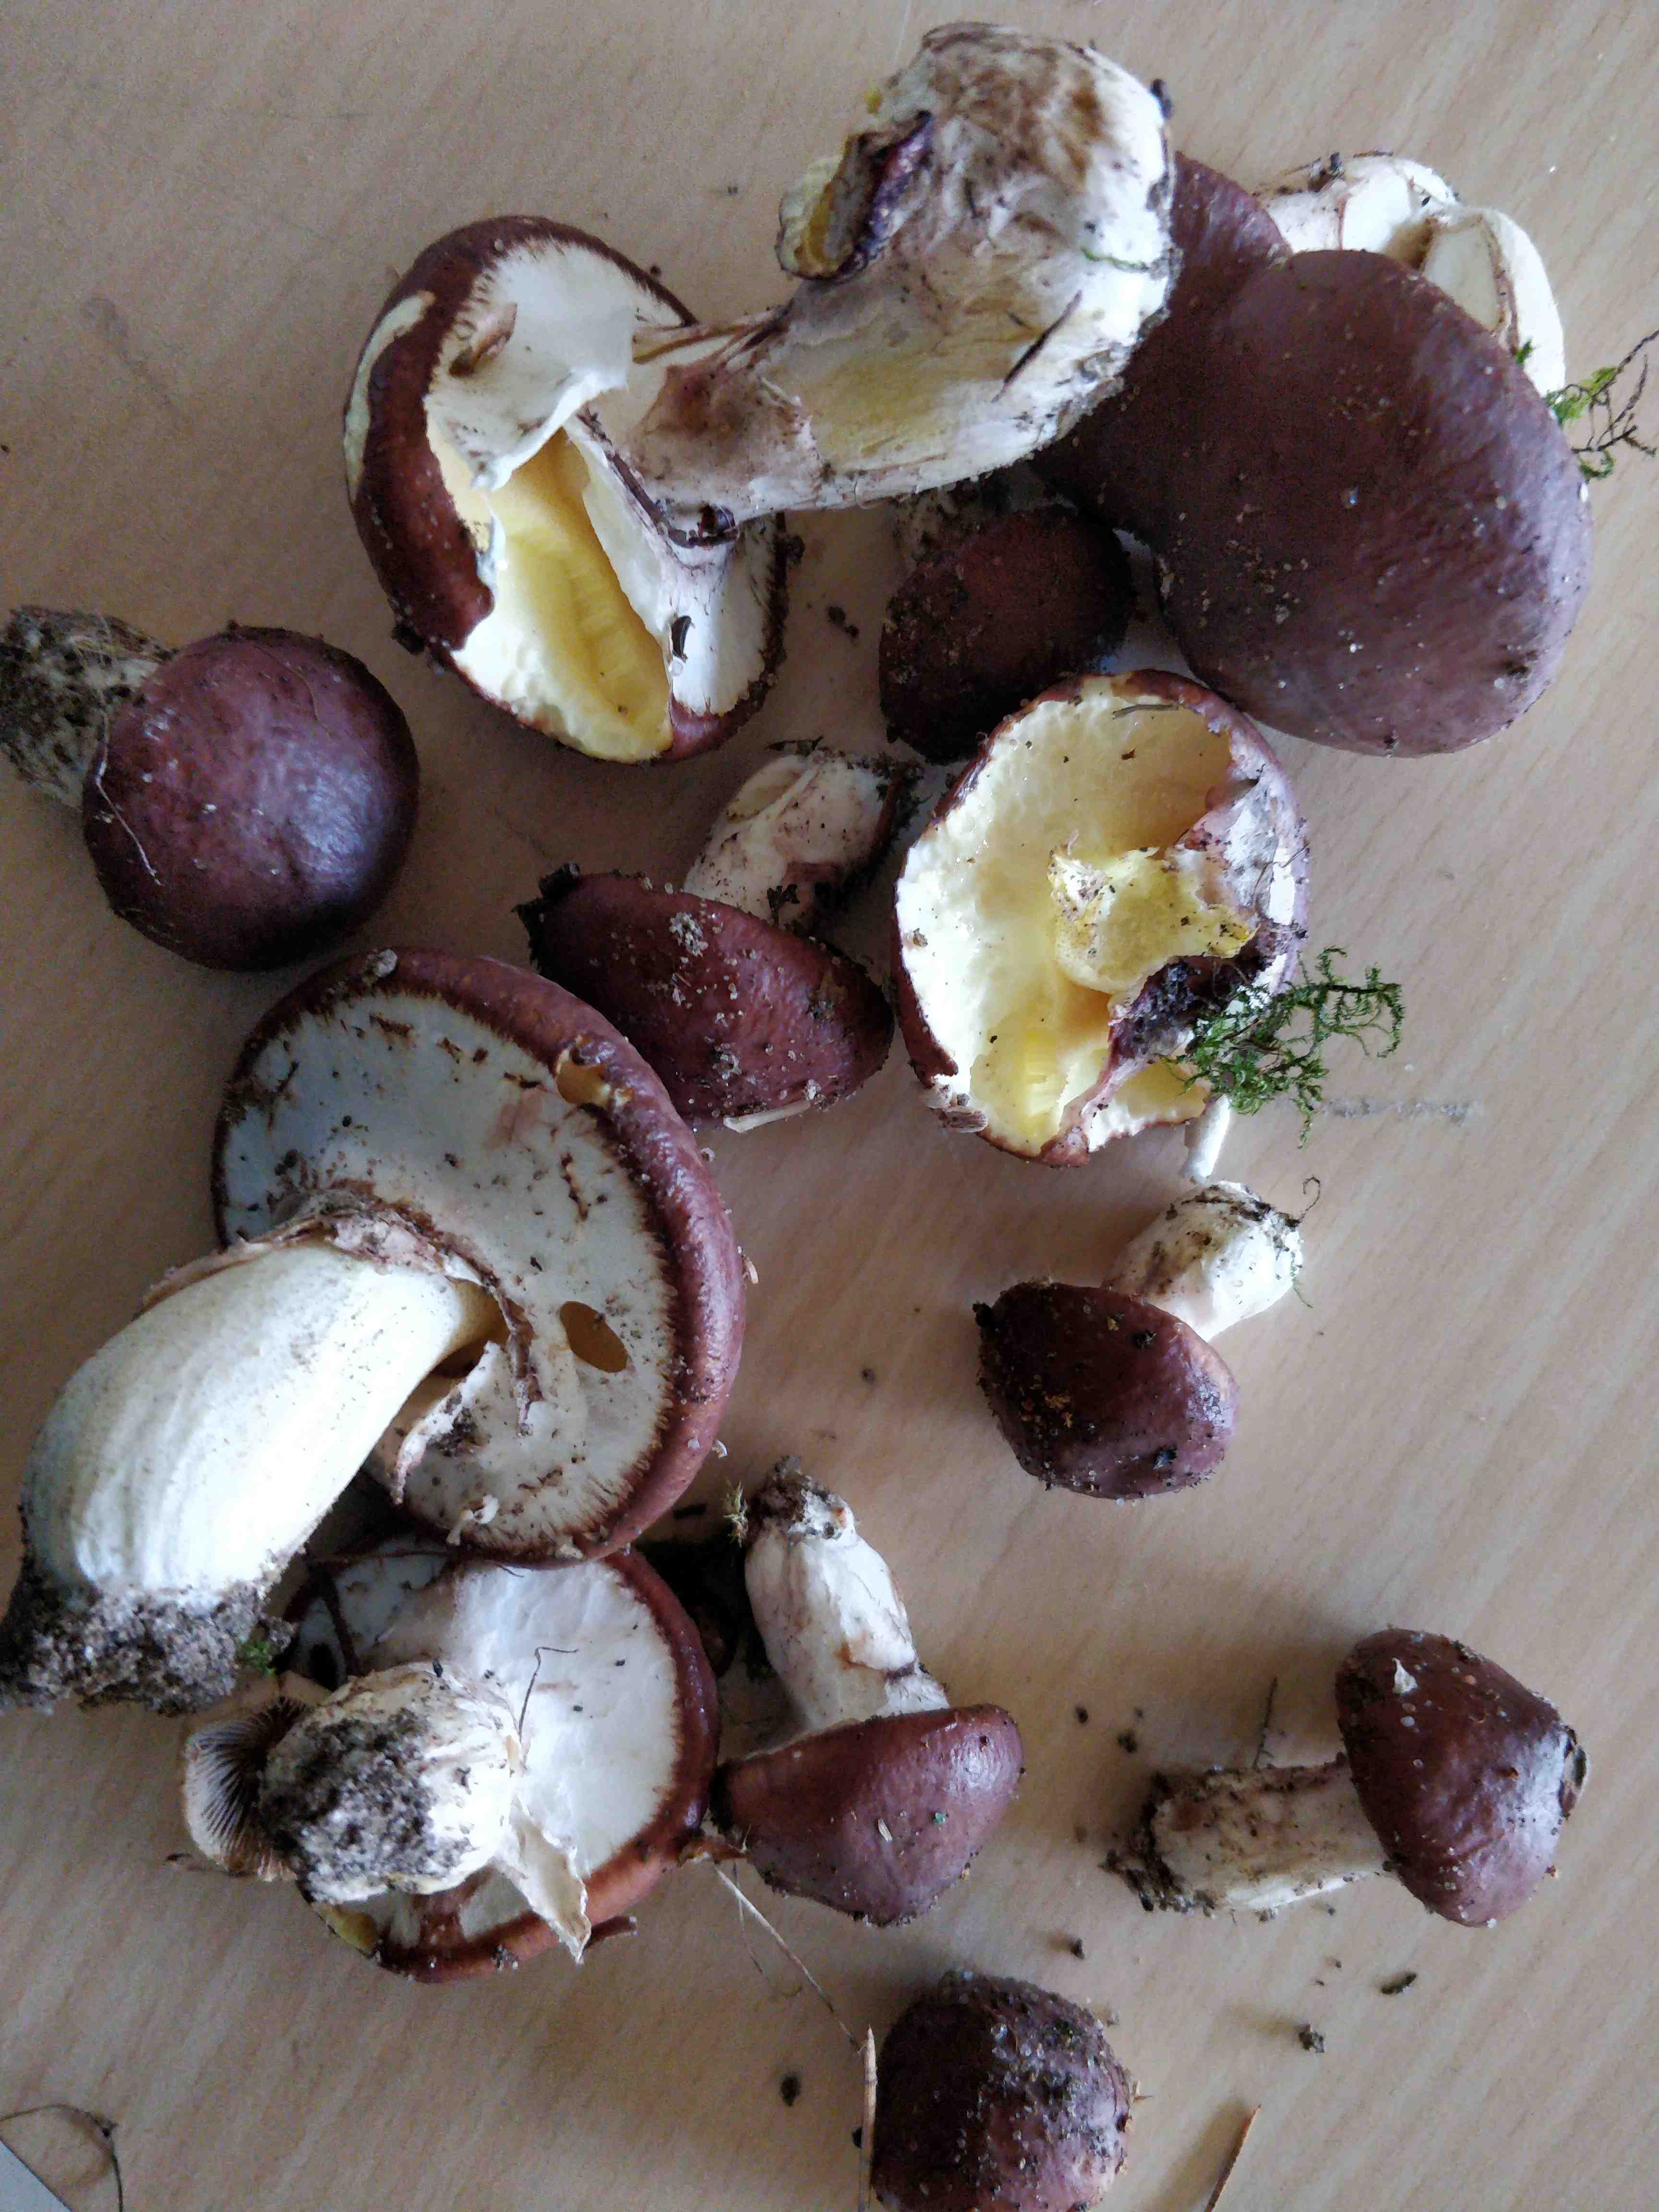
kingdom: Fungi
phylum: Basidiomycota
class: Agaricomycetes
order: Boletales
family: Suillaceae
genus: Suillus
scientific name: Suillus luteus
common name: brungul slimrørhat
